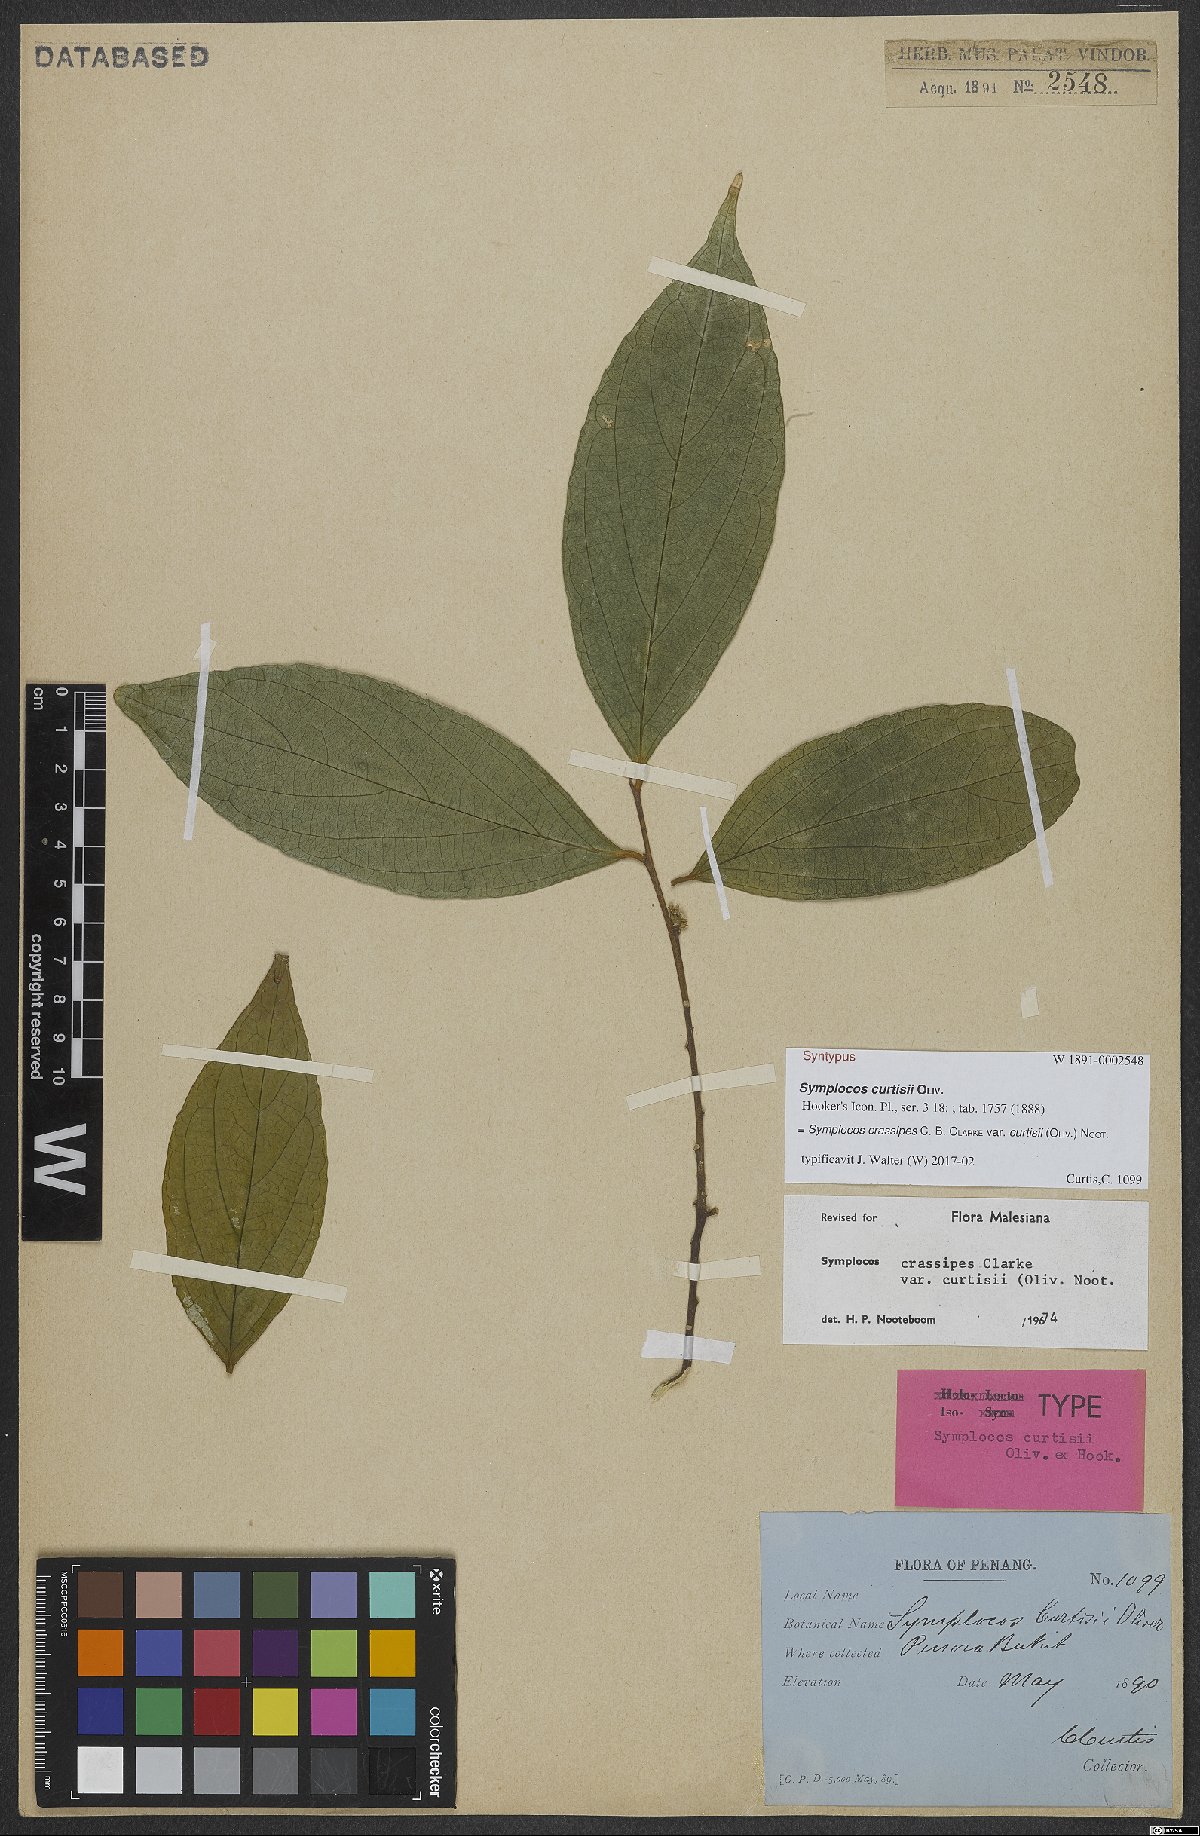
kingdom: Plantae
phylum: Tracheophyta
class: Magnoliopsida
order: Ericales
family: Symplocaceae
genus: Symplocos
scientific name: Symplocos crassipes
